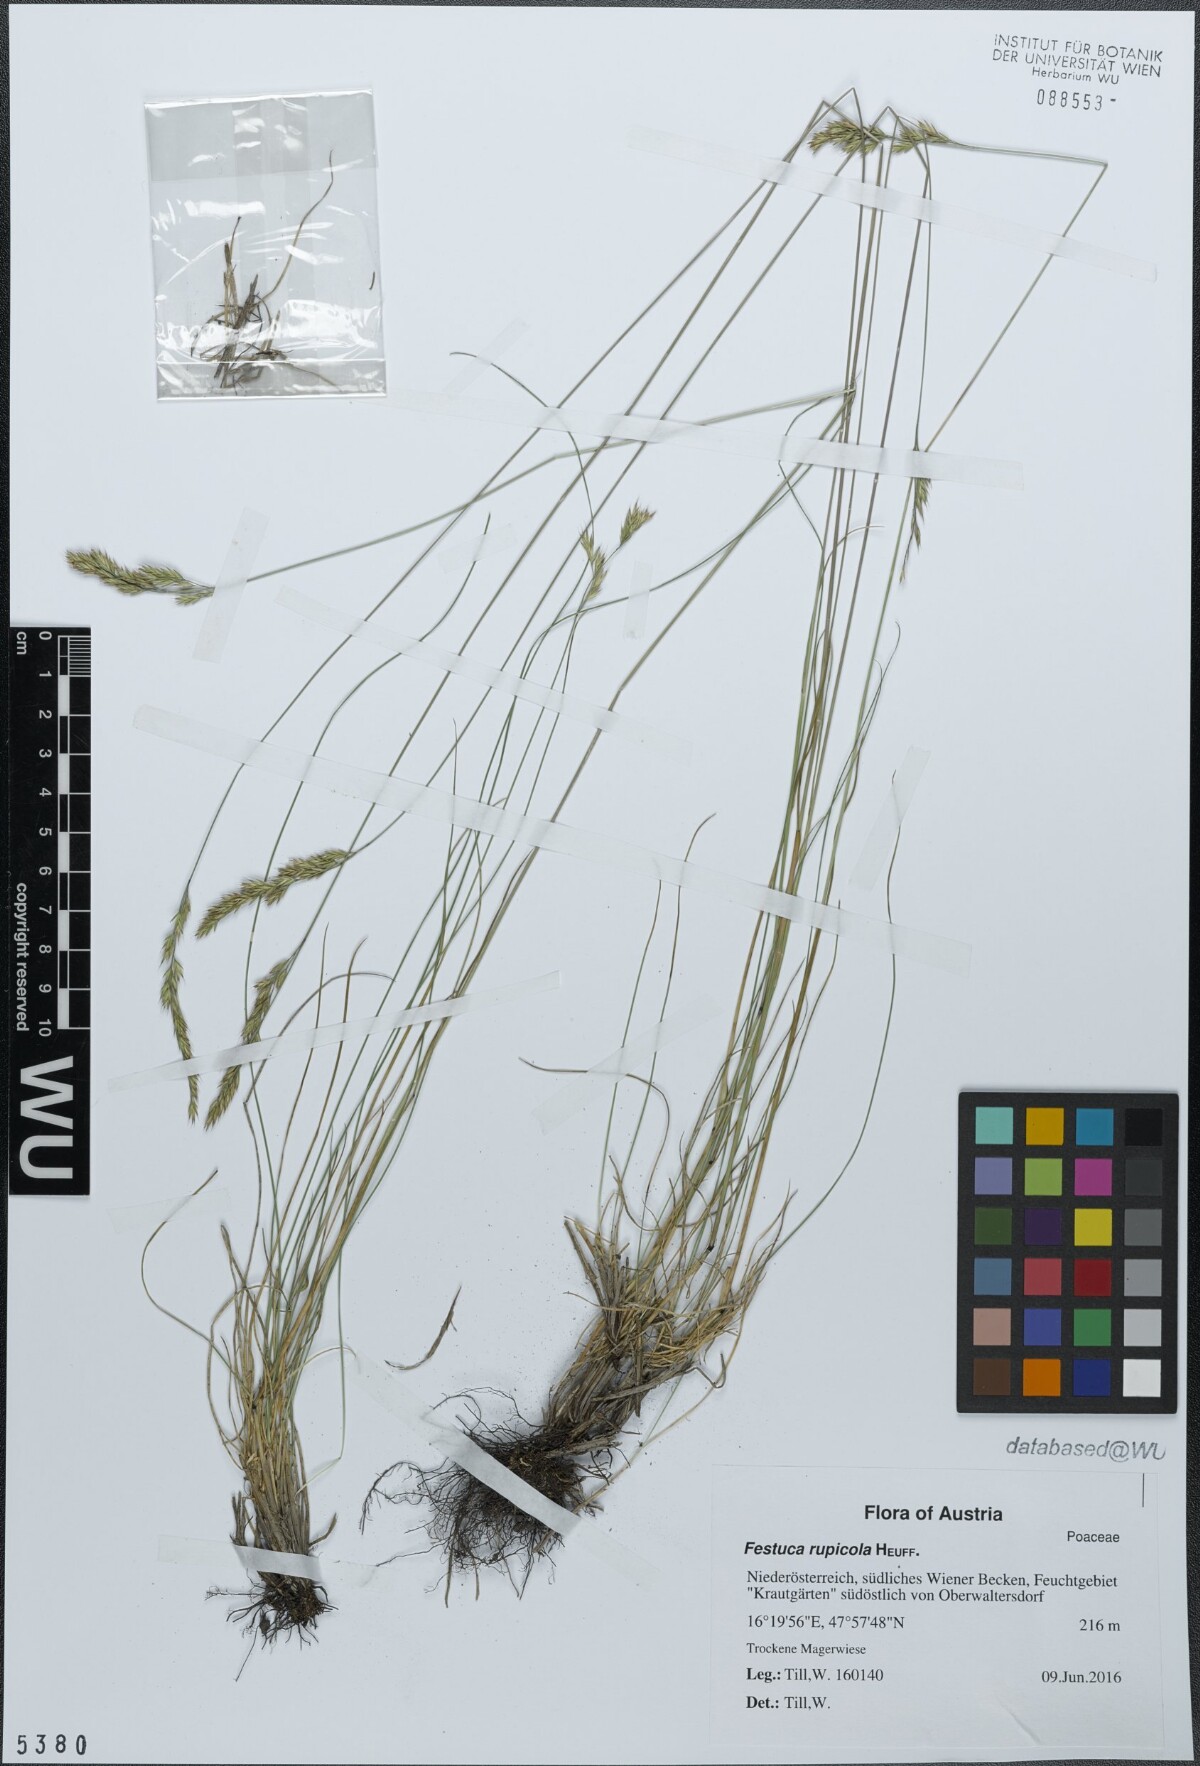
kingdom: Plantae
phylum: Tracheophyta
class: Liliopsida
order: Poales
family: Poaceae
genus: Festuca
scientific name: Festuca rupicola
